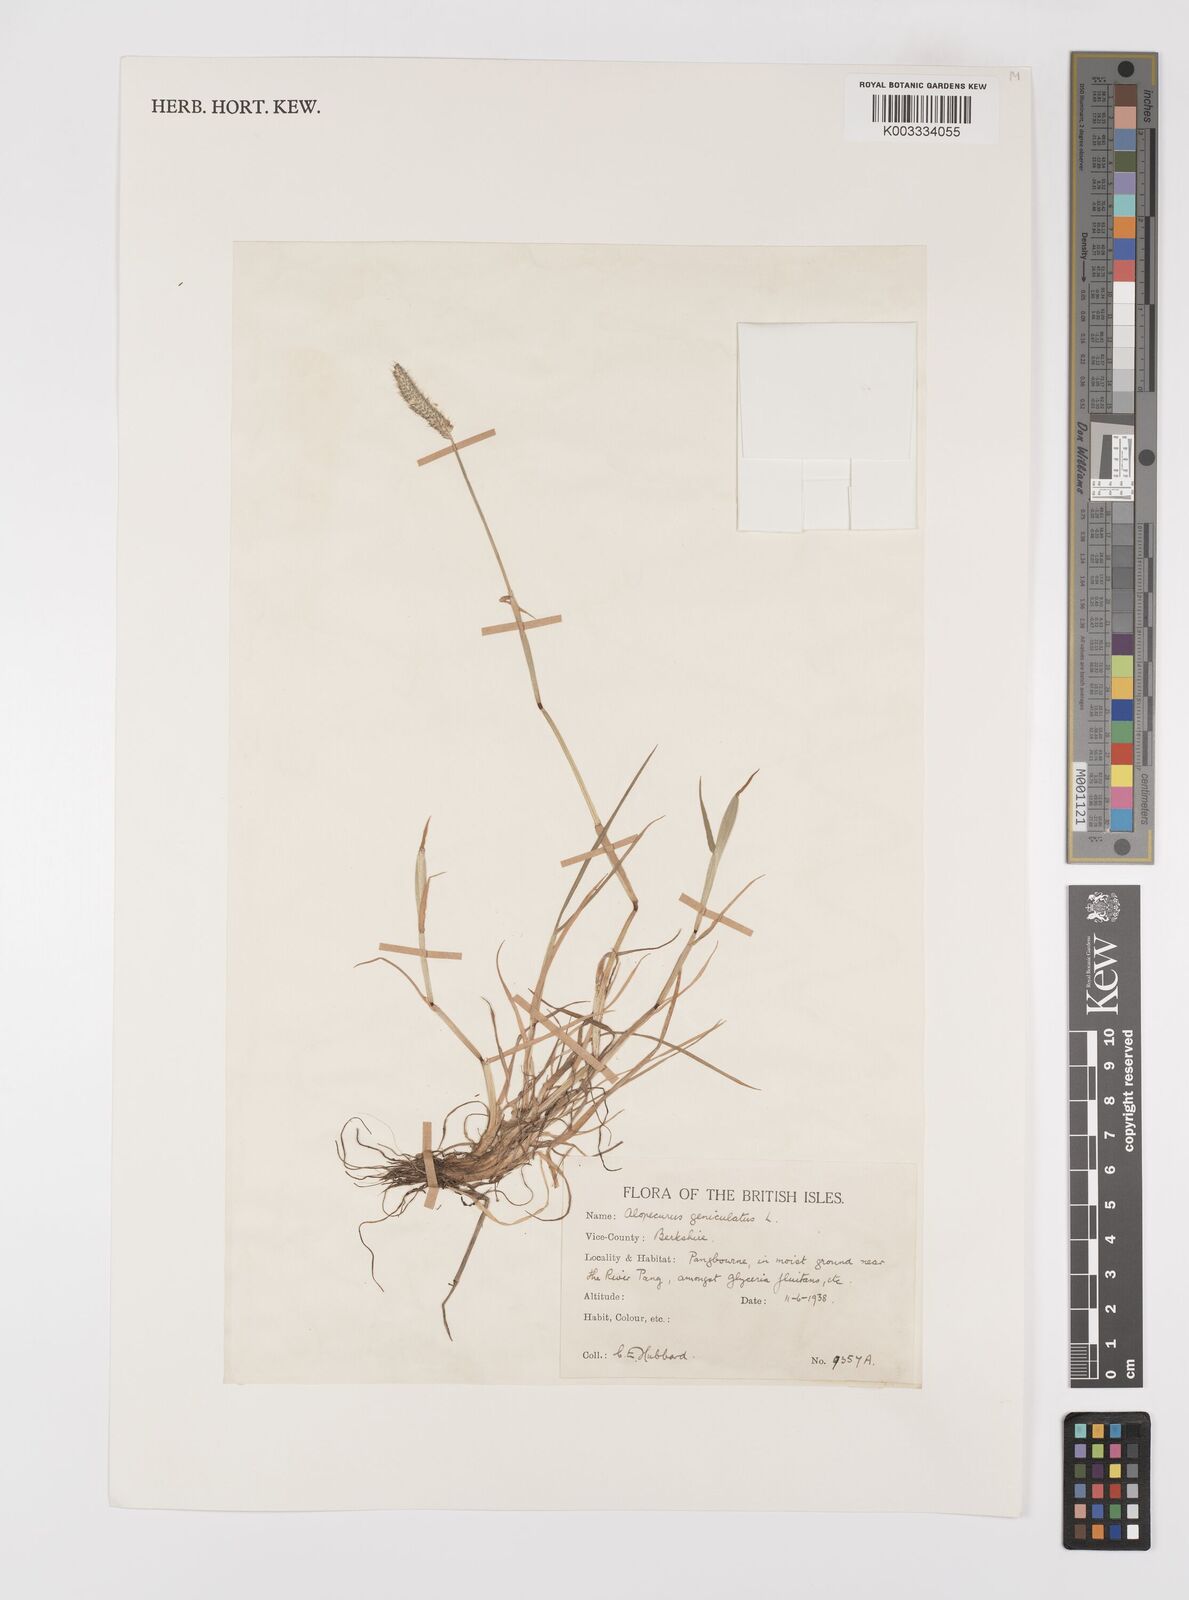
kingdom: Plantae
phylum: Tracheophyta
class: Liliopsida
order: Poales
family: Poaceae
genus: Alopecurus
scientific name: Alopecurus geniculatus
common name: Water foxtail
